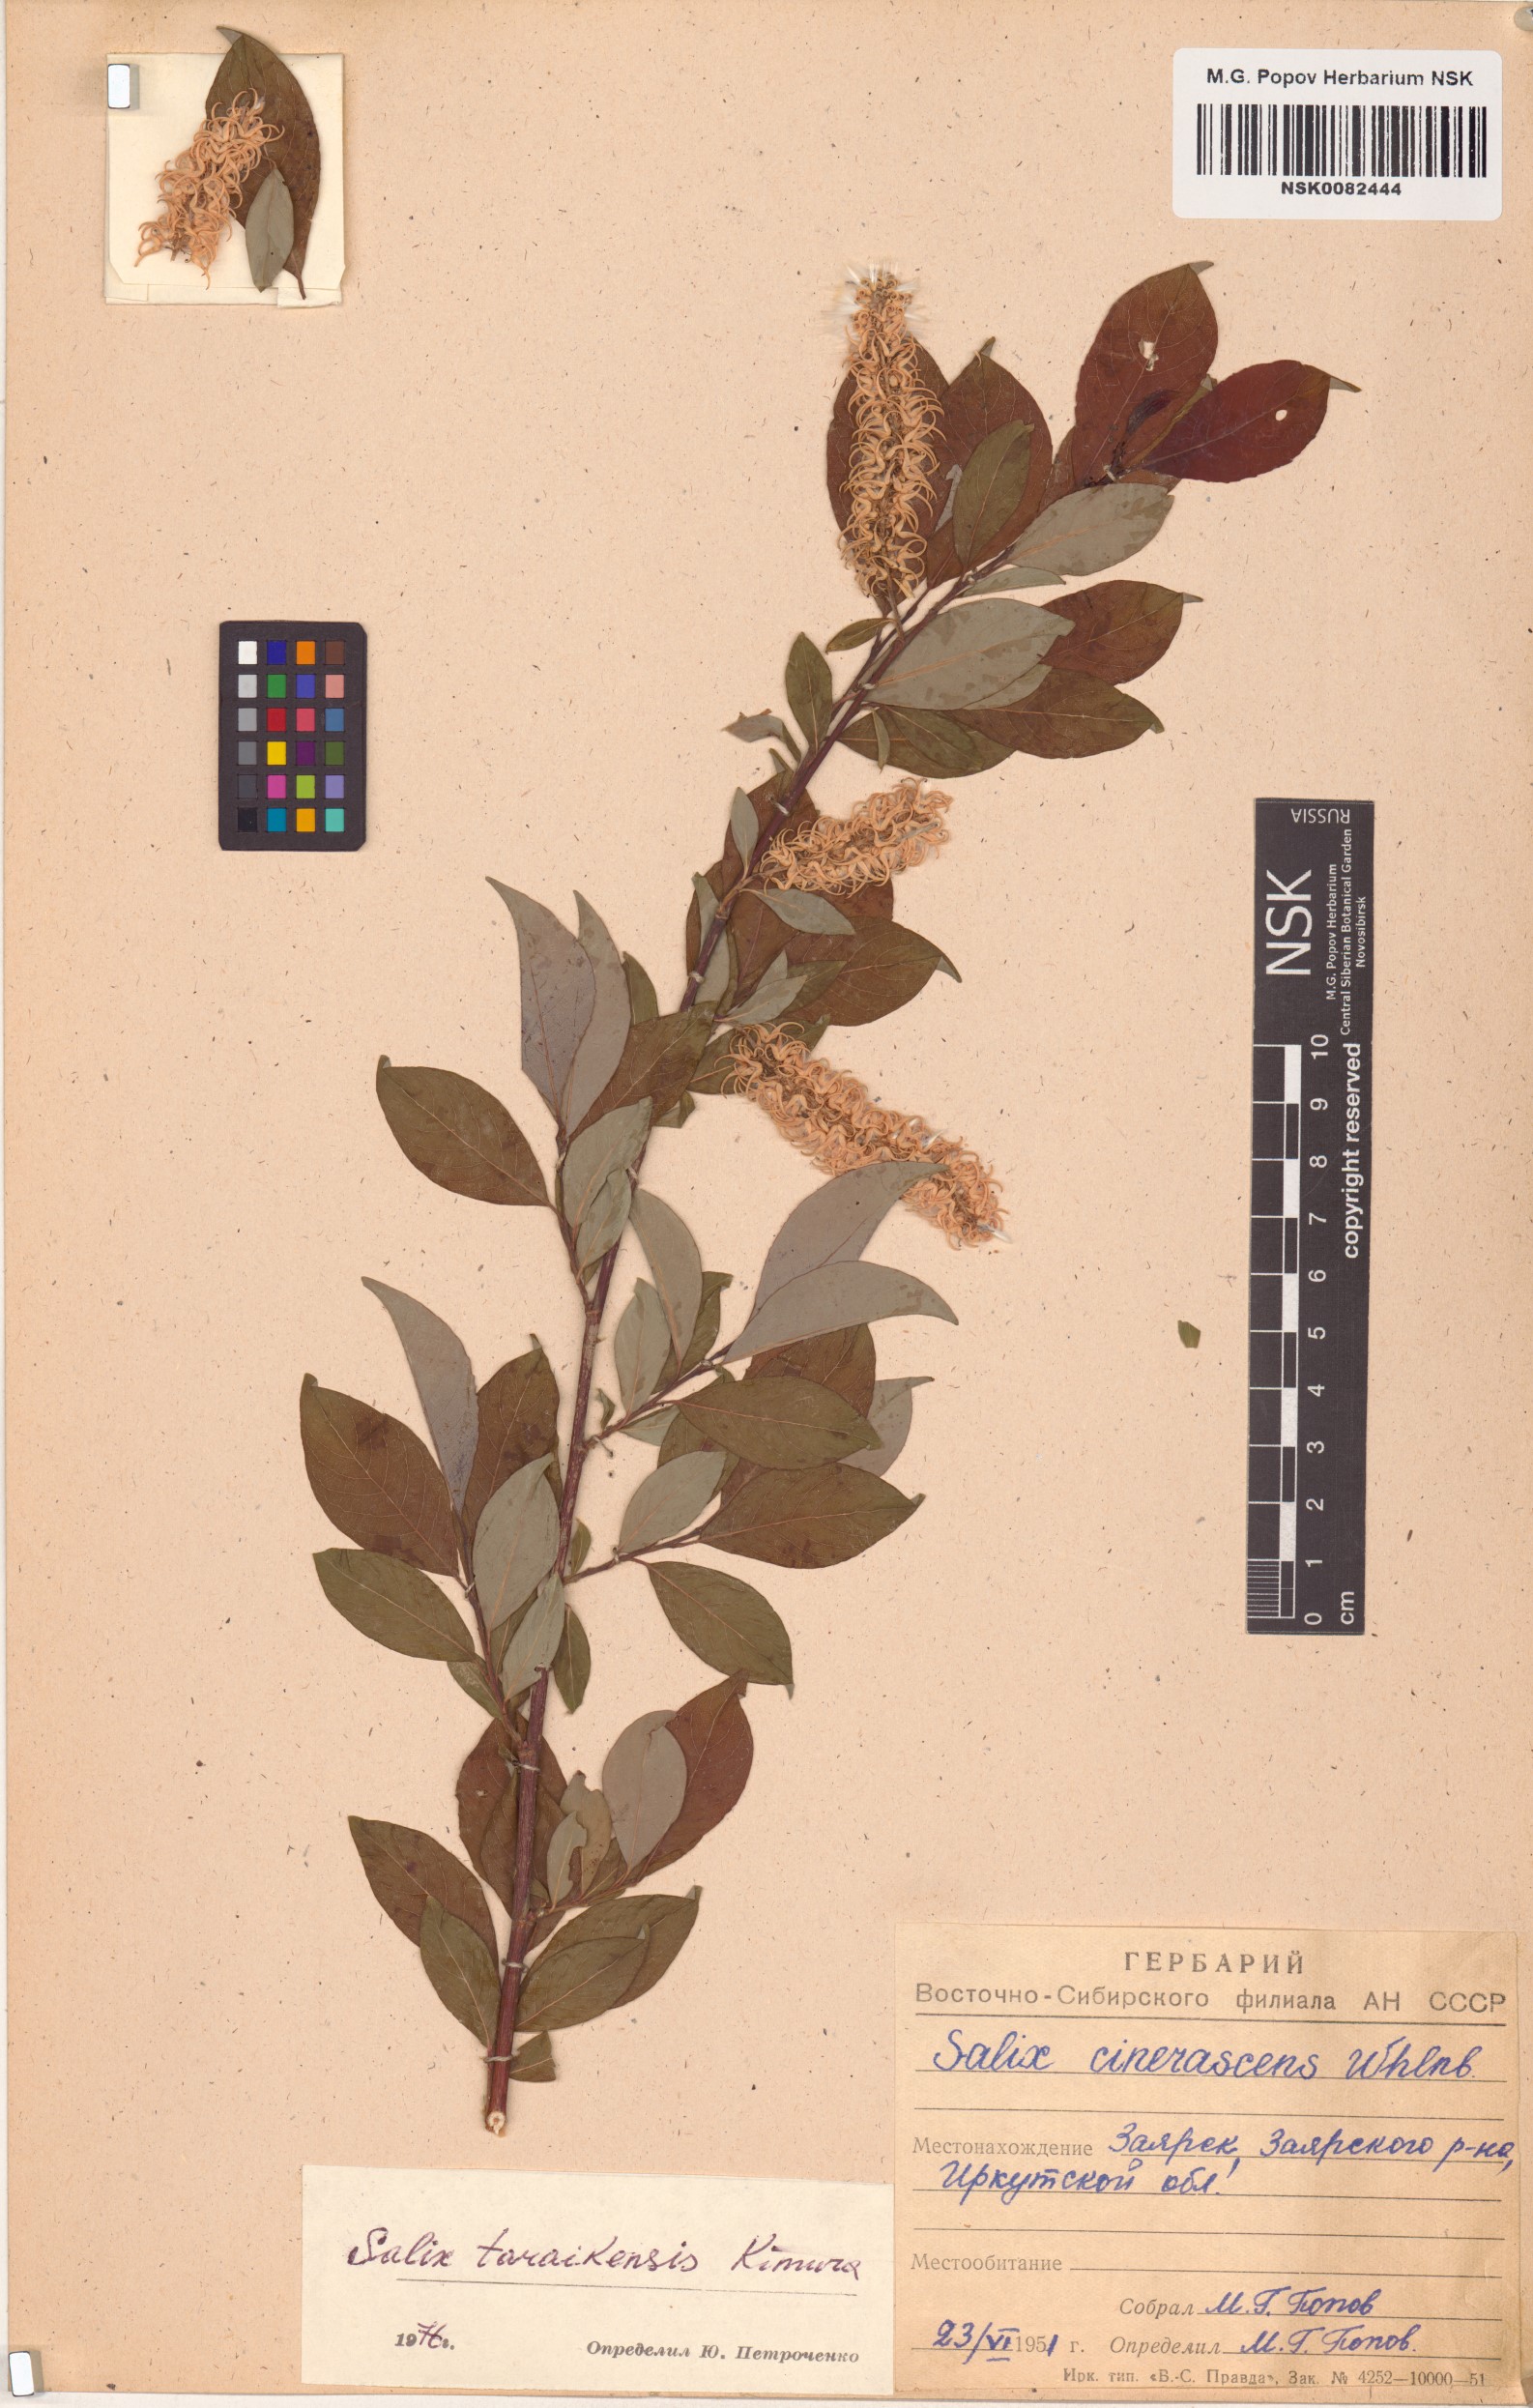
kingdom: Plantae
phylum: Tracheophyta
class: Magnoliopsida
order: Malpighiales
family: Salicaceae
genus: Salix
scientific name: Salix taraikensis
